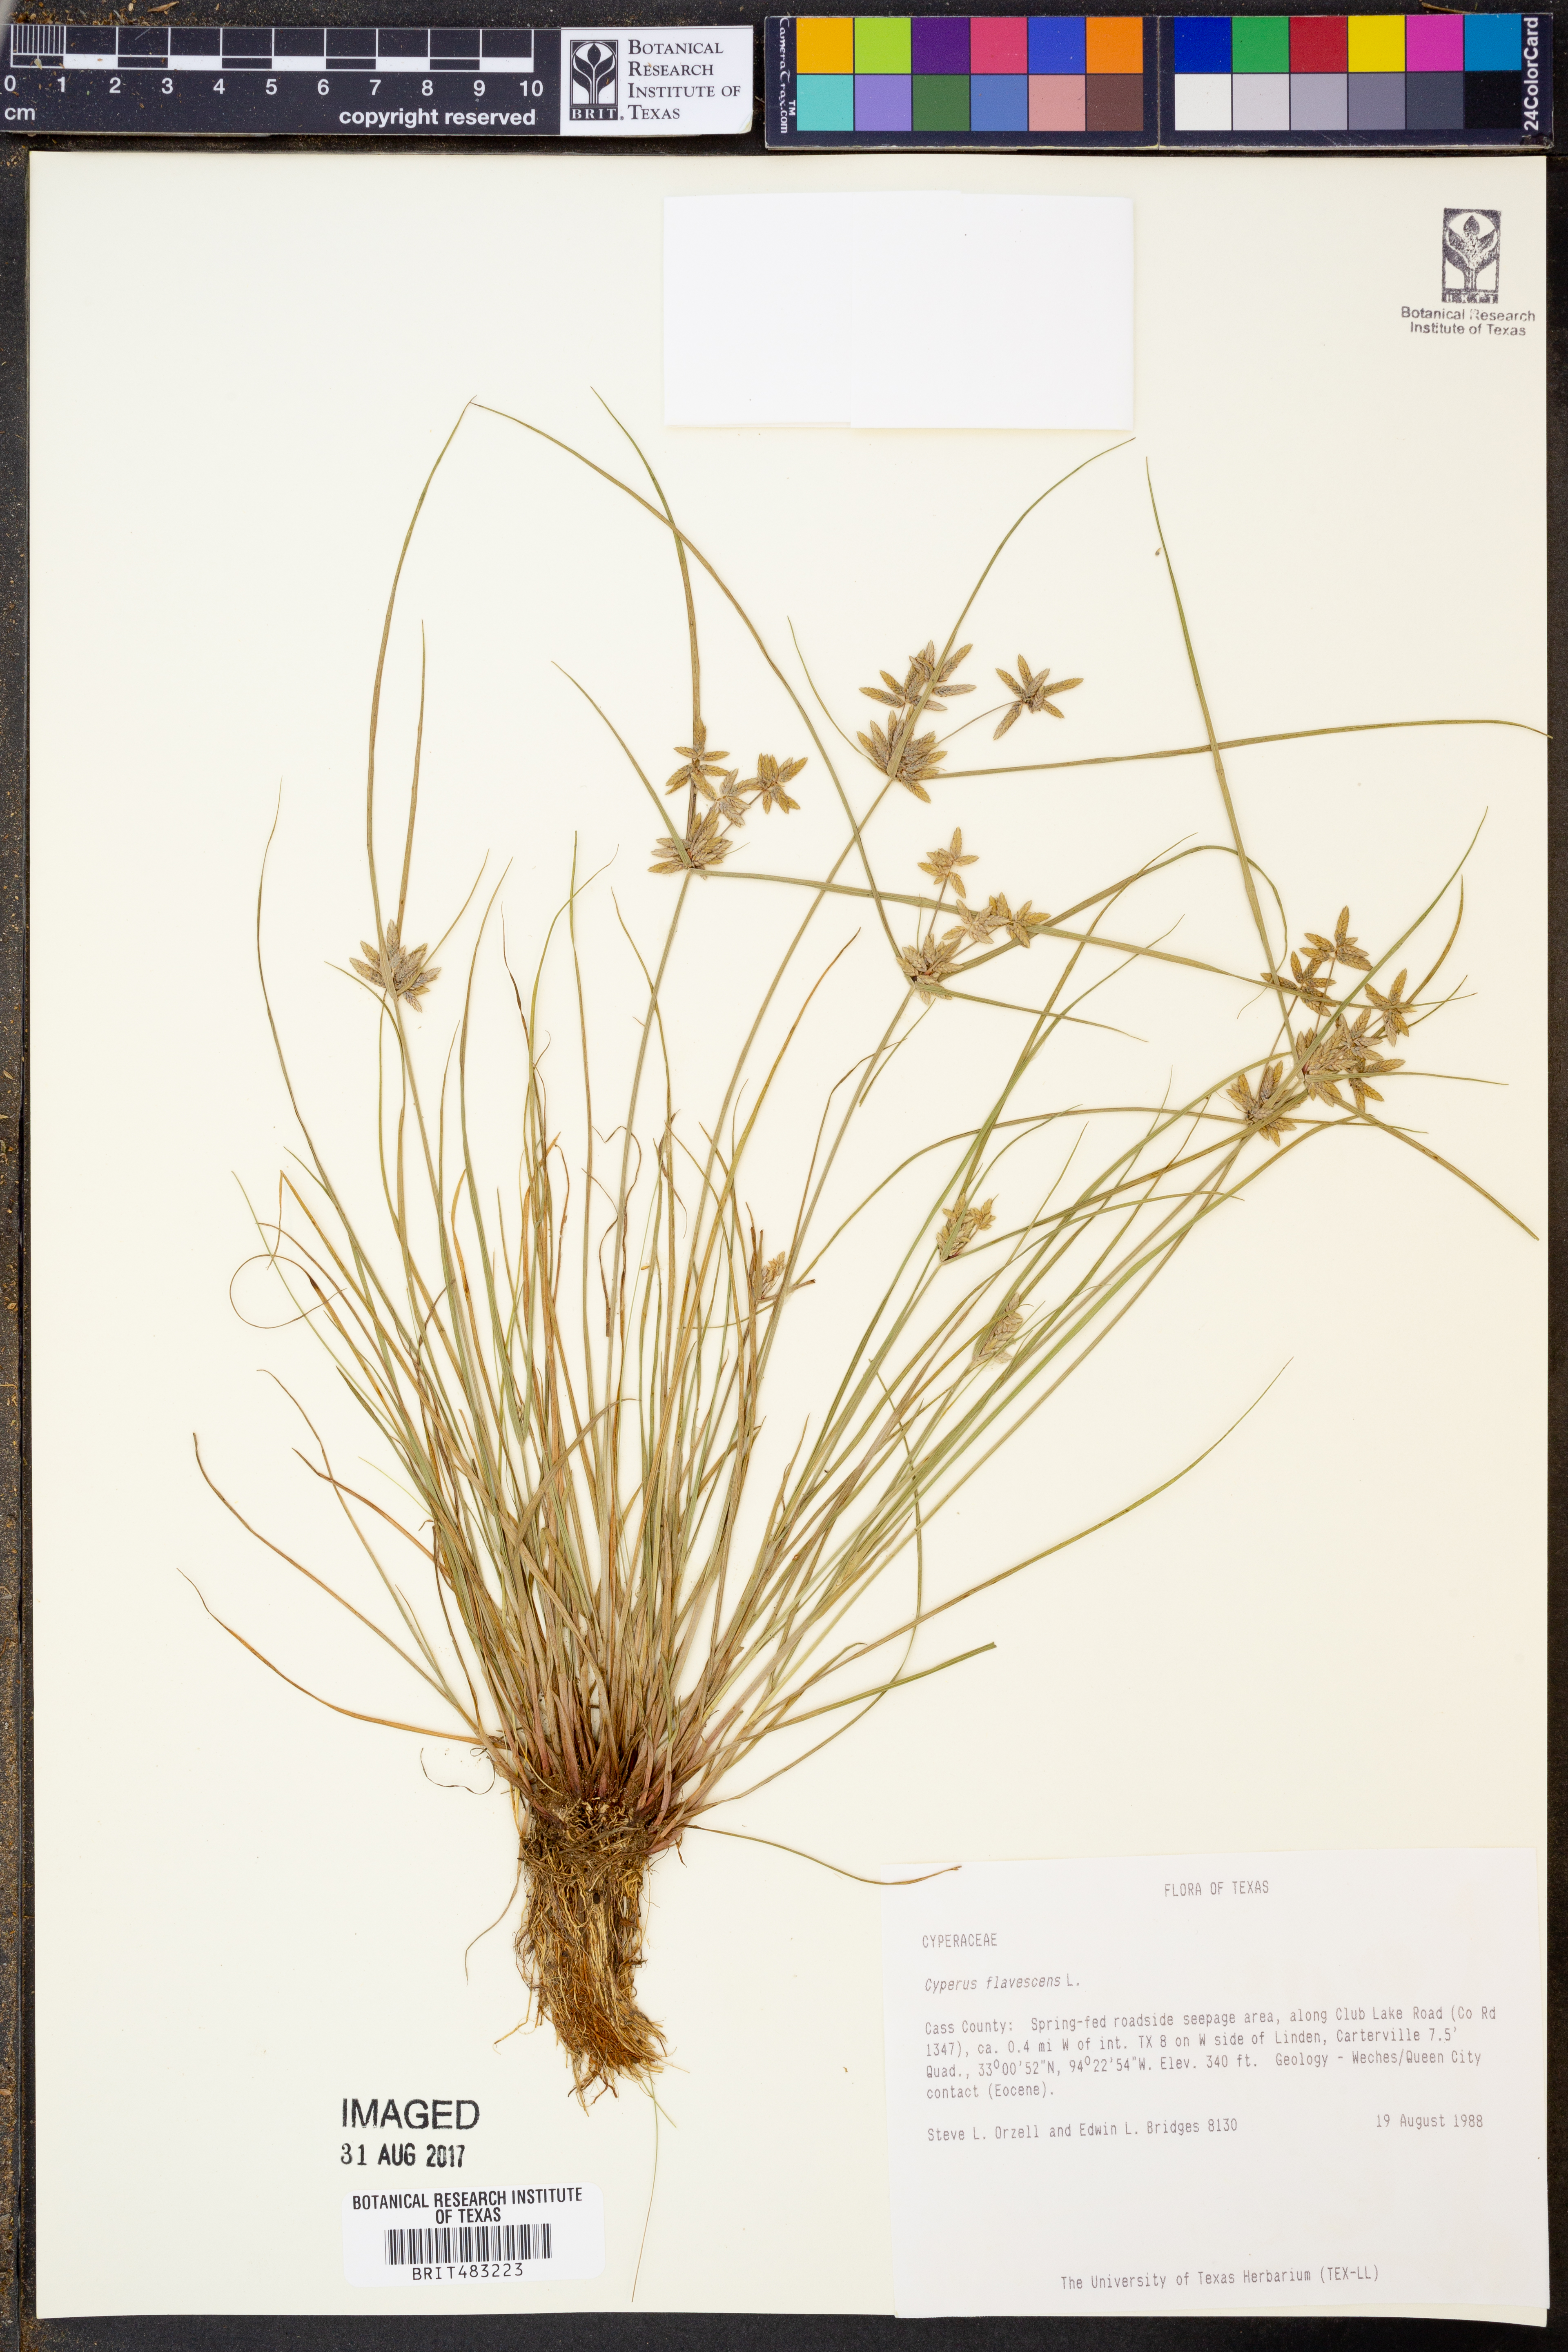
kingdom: Plantae
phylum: Tracheophyta
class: Liliopsida
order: Poales
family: Cyperaceae
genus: Cyperus
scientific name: Cyperus flavescens
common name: Yellow galingale
